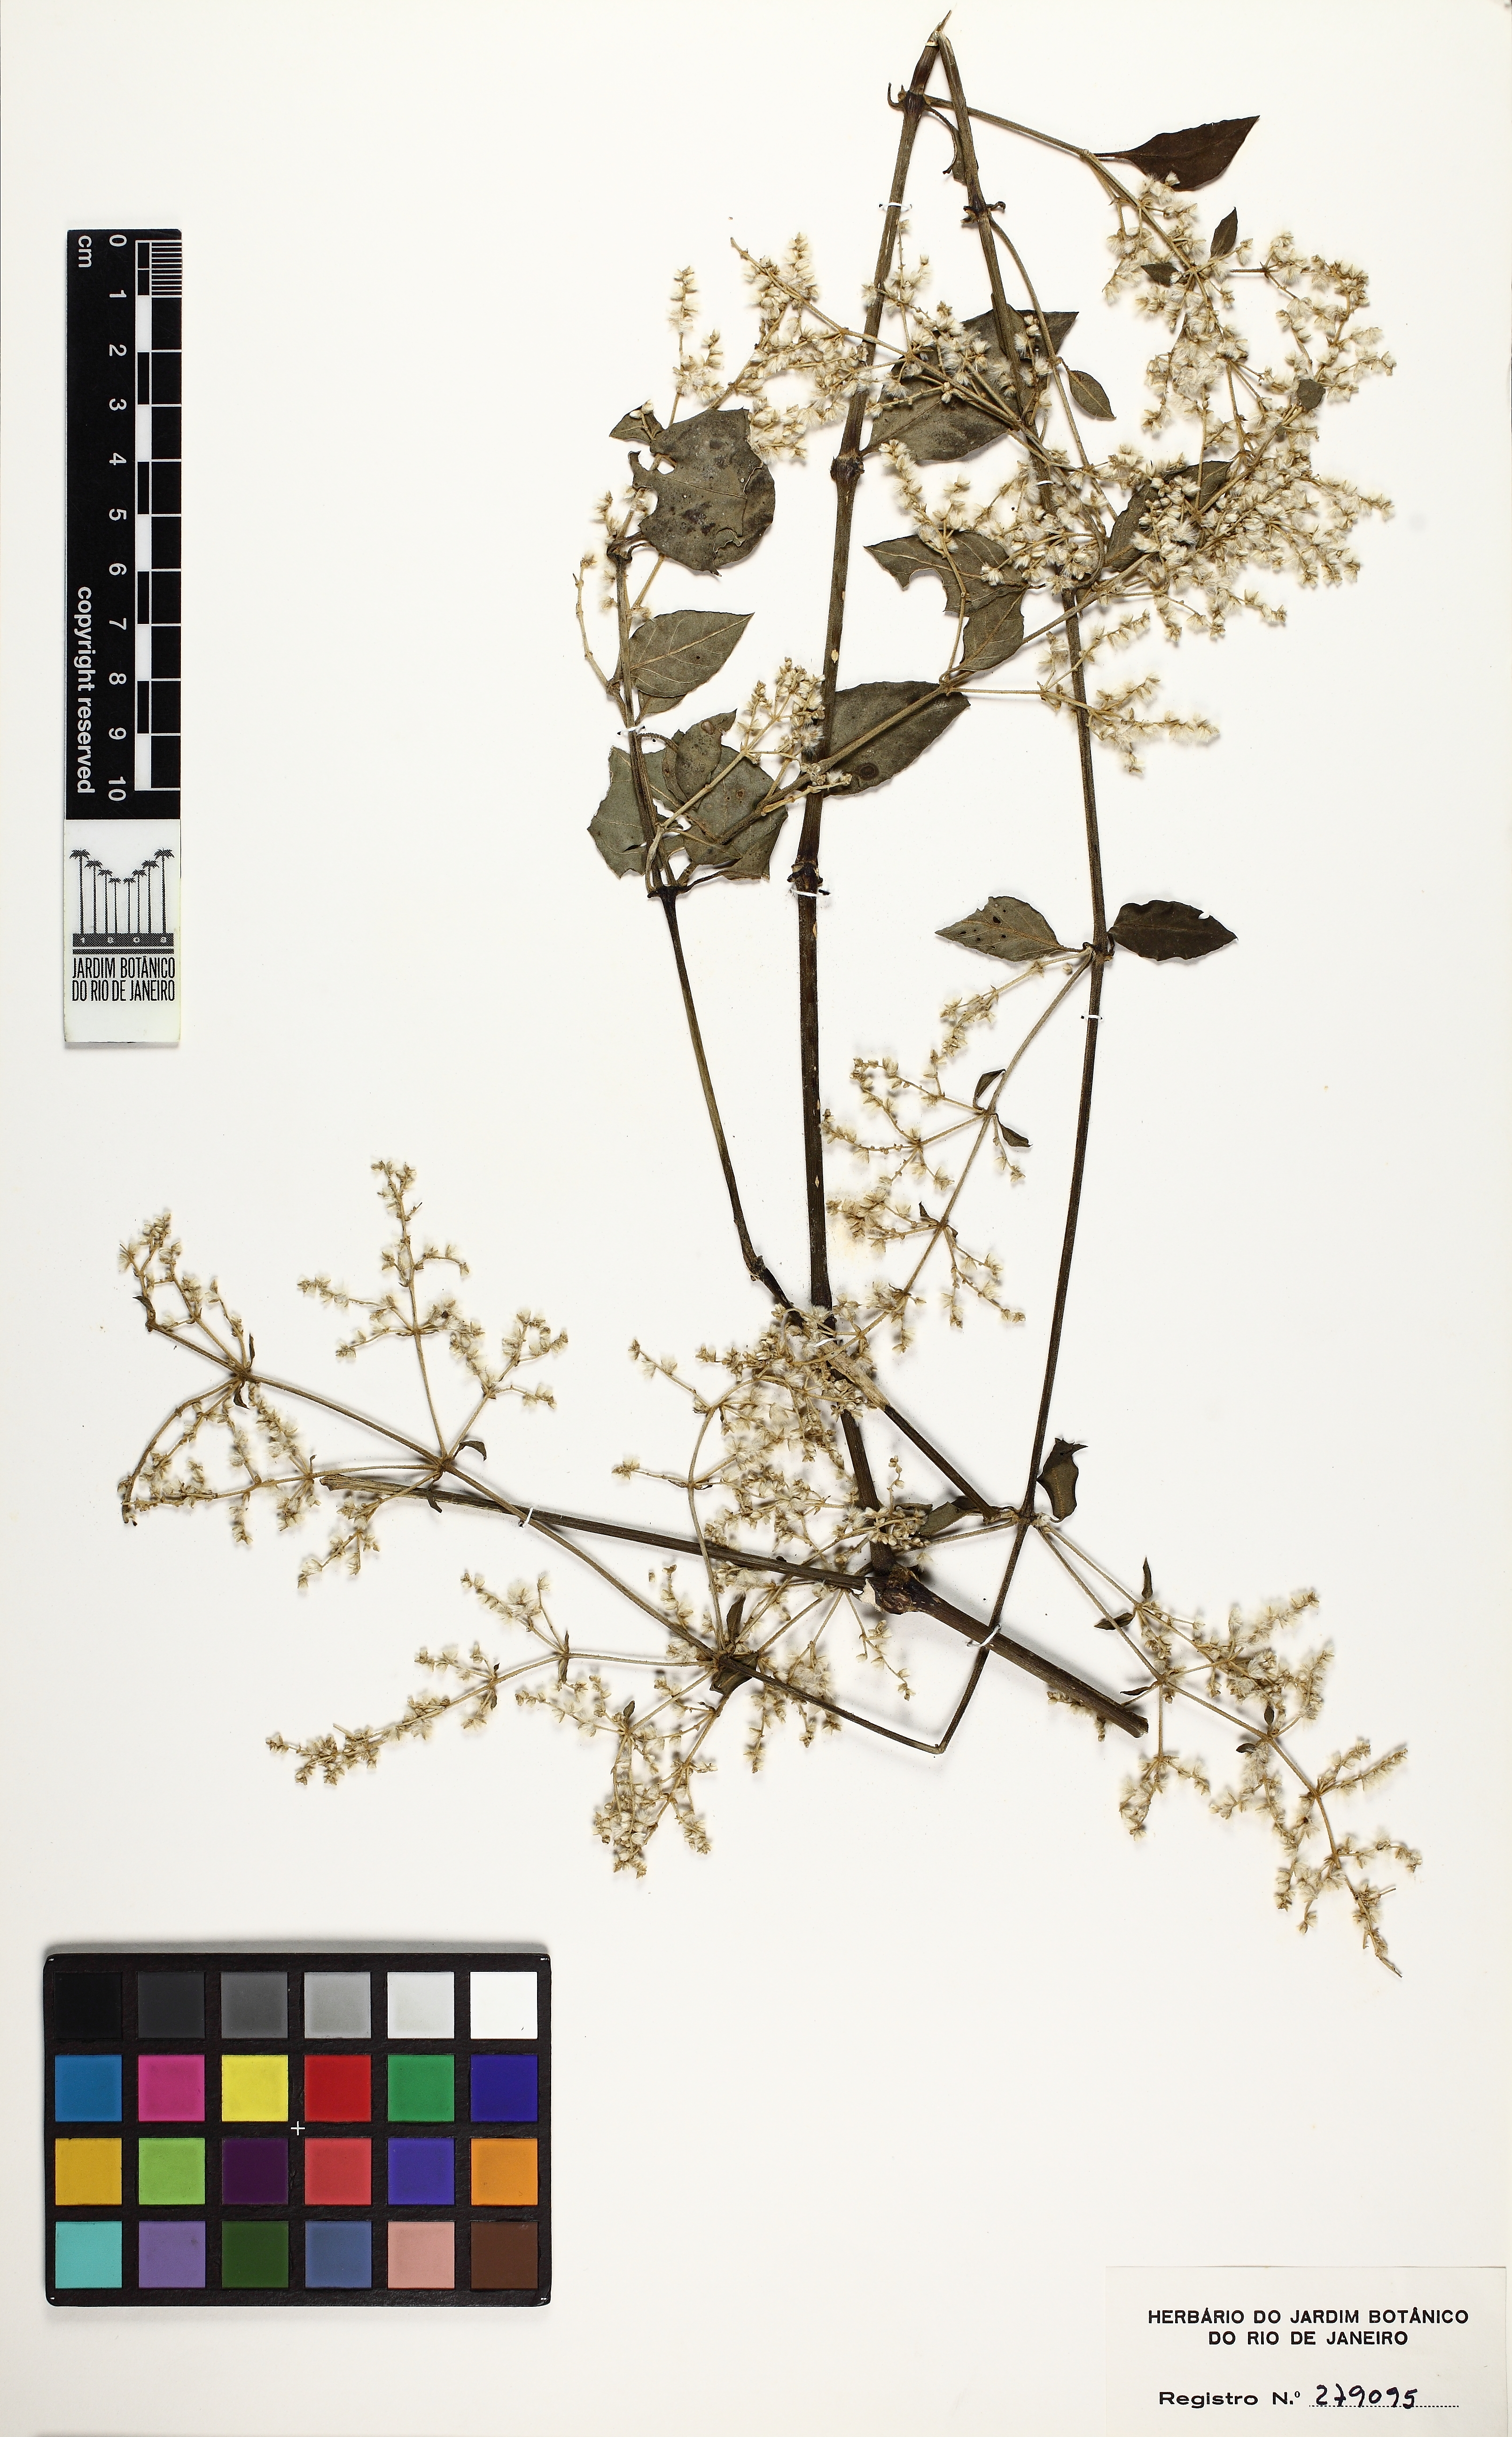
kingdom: Plantae
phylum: Tracheophyta
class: Magnoliopsida
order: Caryophyllales
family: Amaranthaceae
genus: Hebanthe
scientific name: Hebanthe pulverulenta
